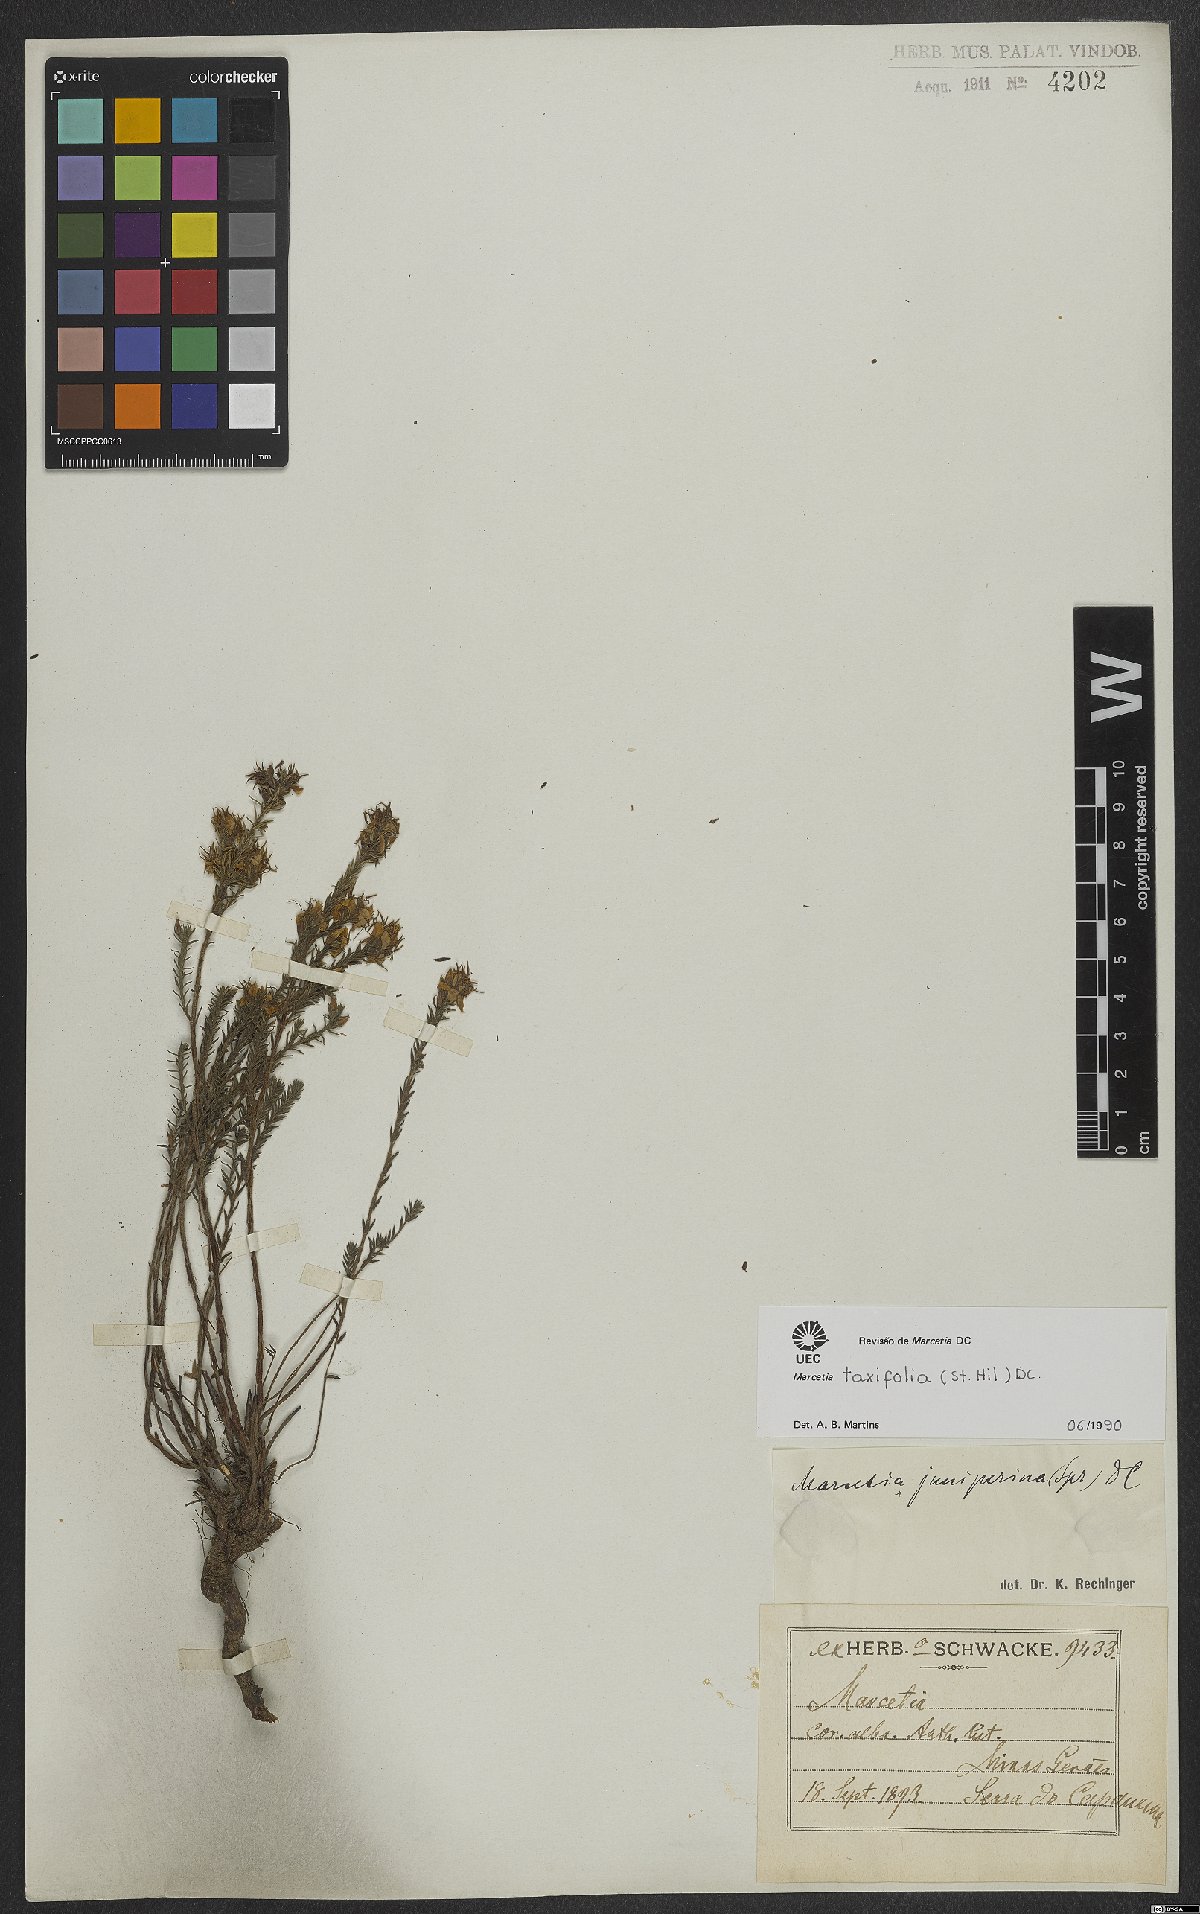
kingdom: Plantae
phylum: Tracheophyta
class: Magnoliopsida
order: Myrtales
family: Melastomataceae
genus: Marcetia
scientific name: Marcetia taxifolia
